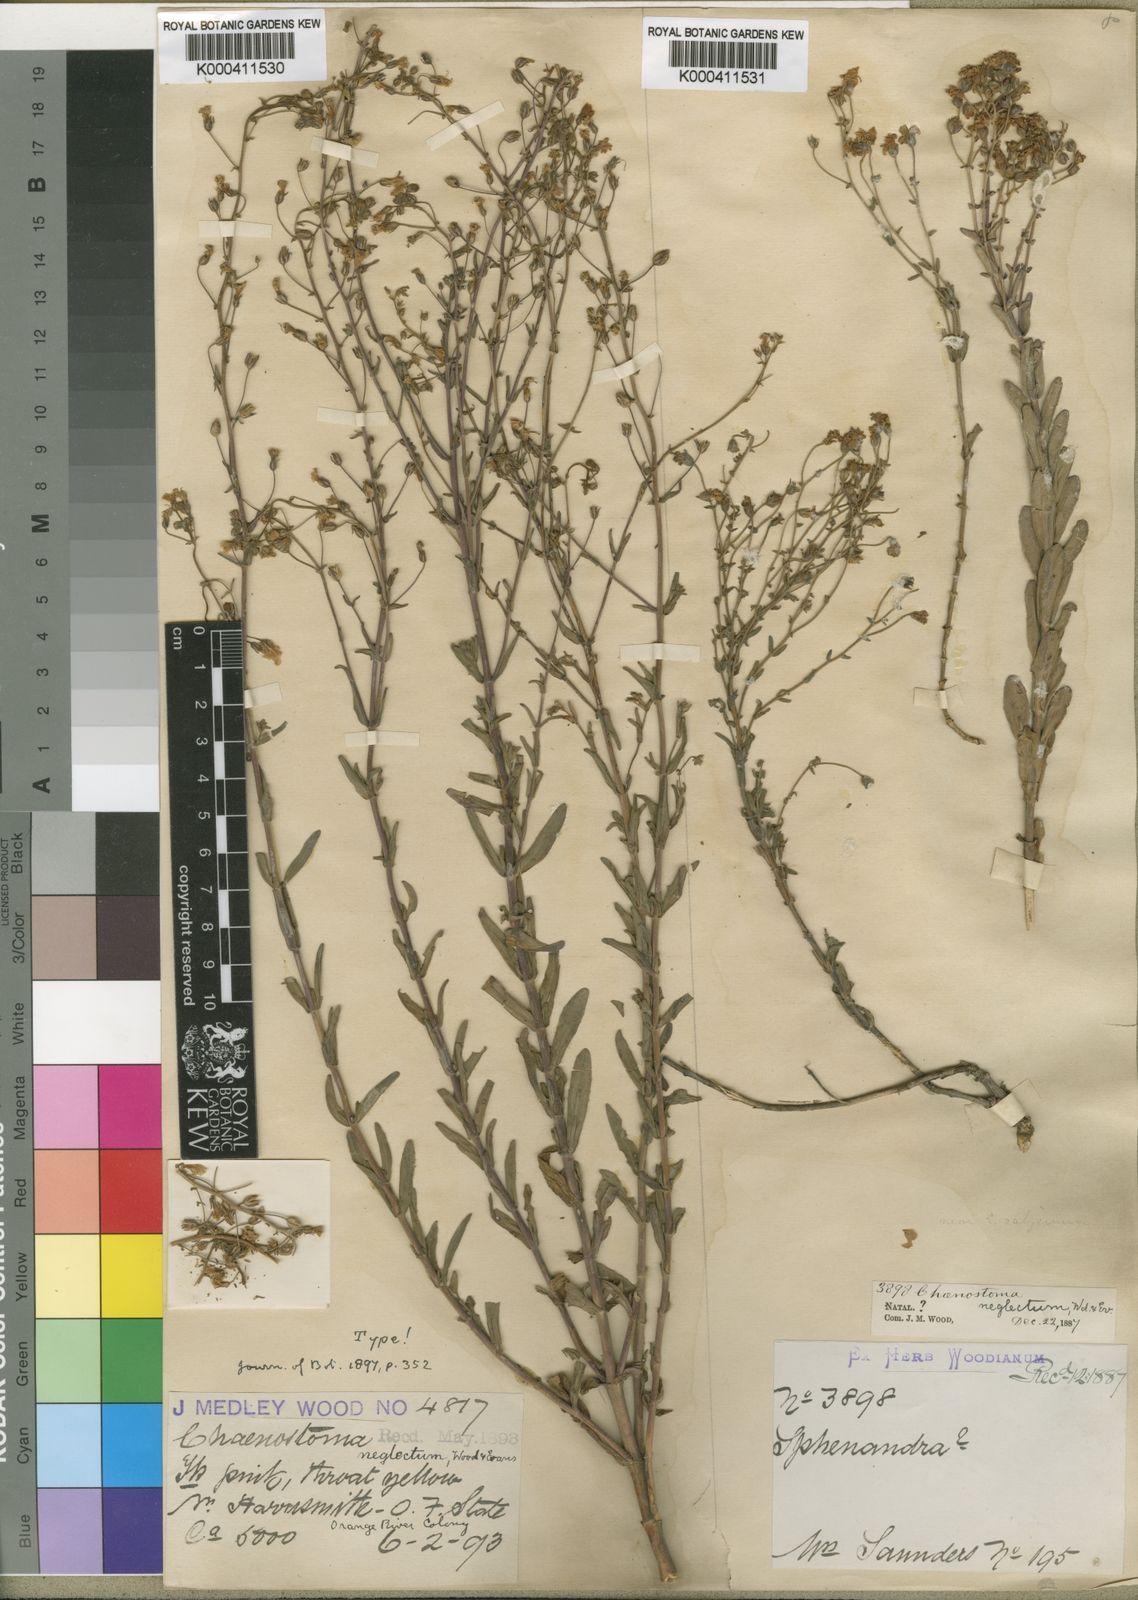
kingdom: Plantae
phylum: Tracheophyta
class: Magnoliopsida
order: Lamiales
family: Scrophulariaceae
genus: Chaenostoma
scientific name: Chaenostoma neglectum
